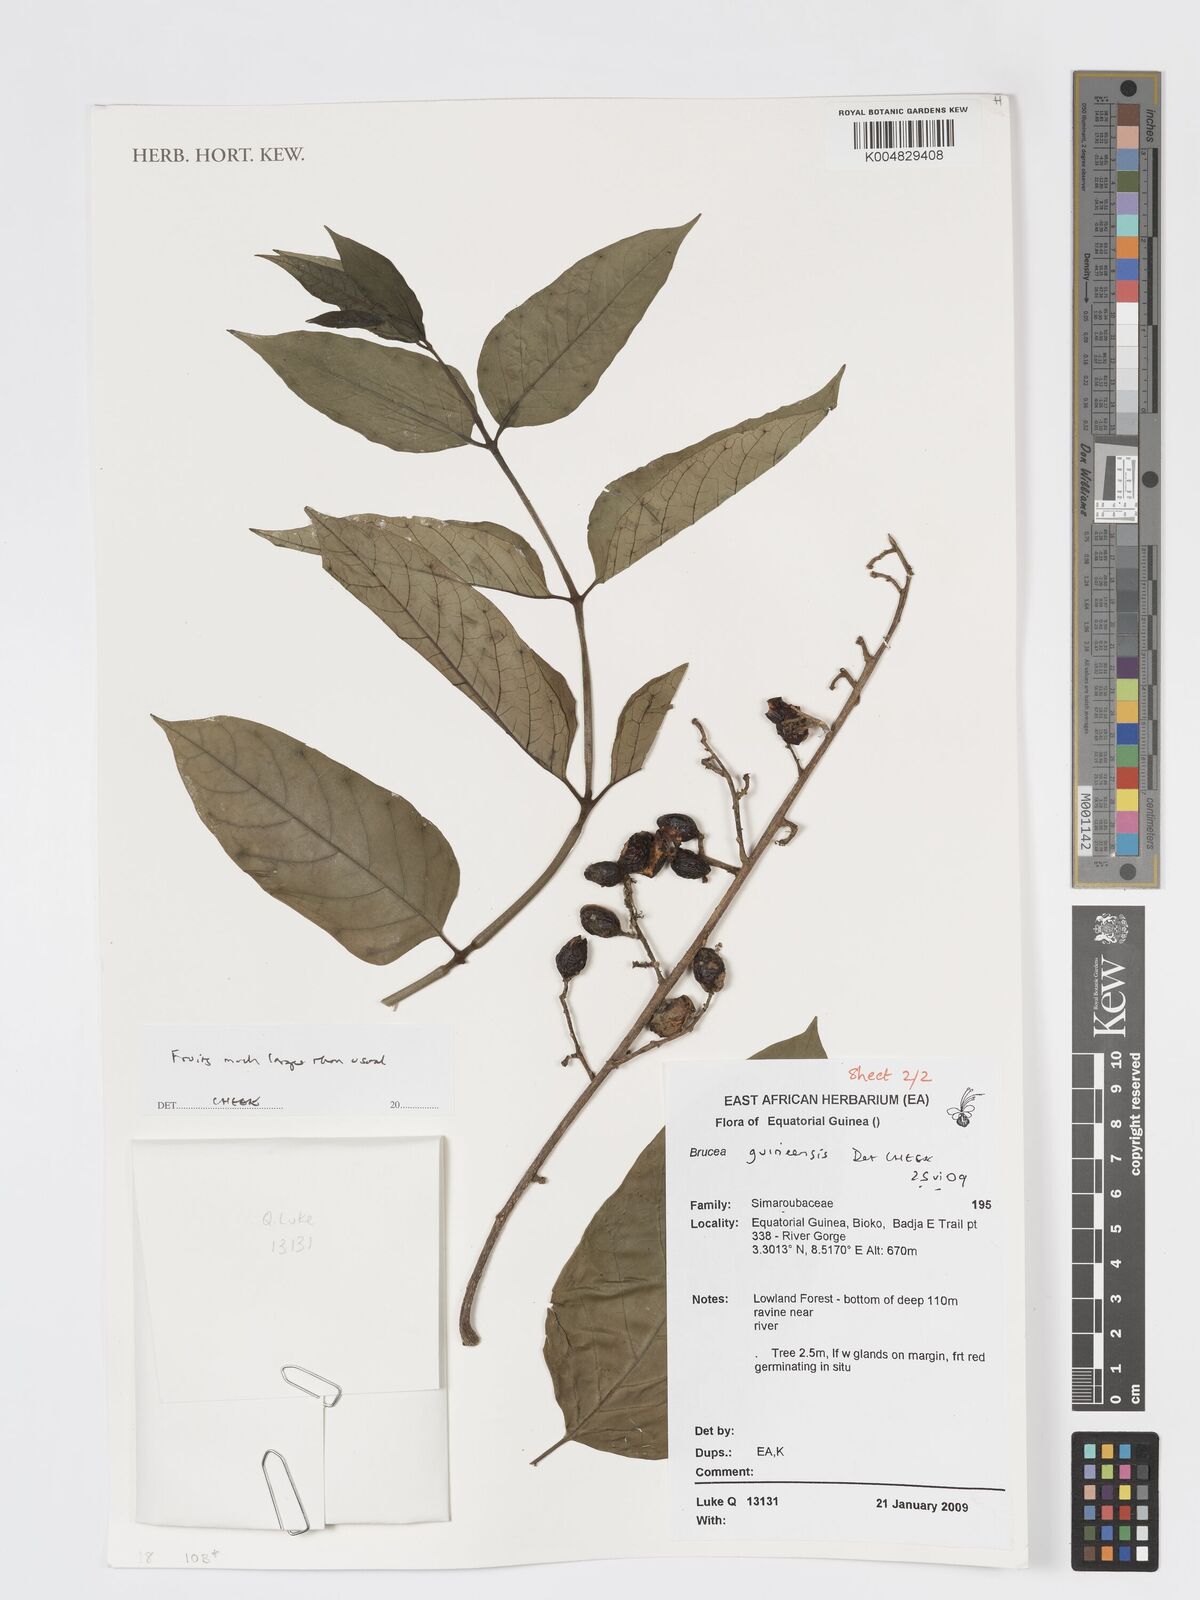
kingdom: Plantae
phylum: Tracheophyta
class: Magnoliopsida
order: Sapindales
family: Anacardiaceae
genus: Trichoscypha
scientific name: Trichoscypha smythei
